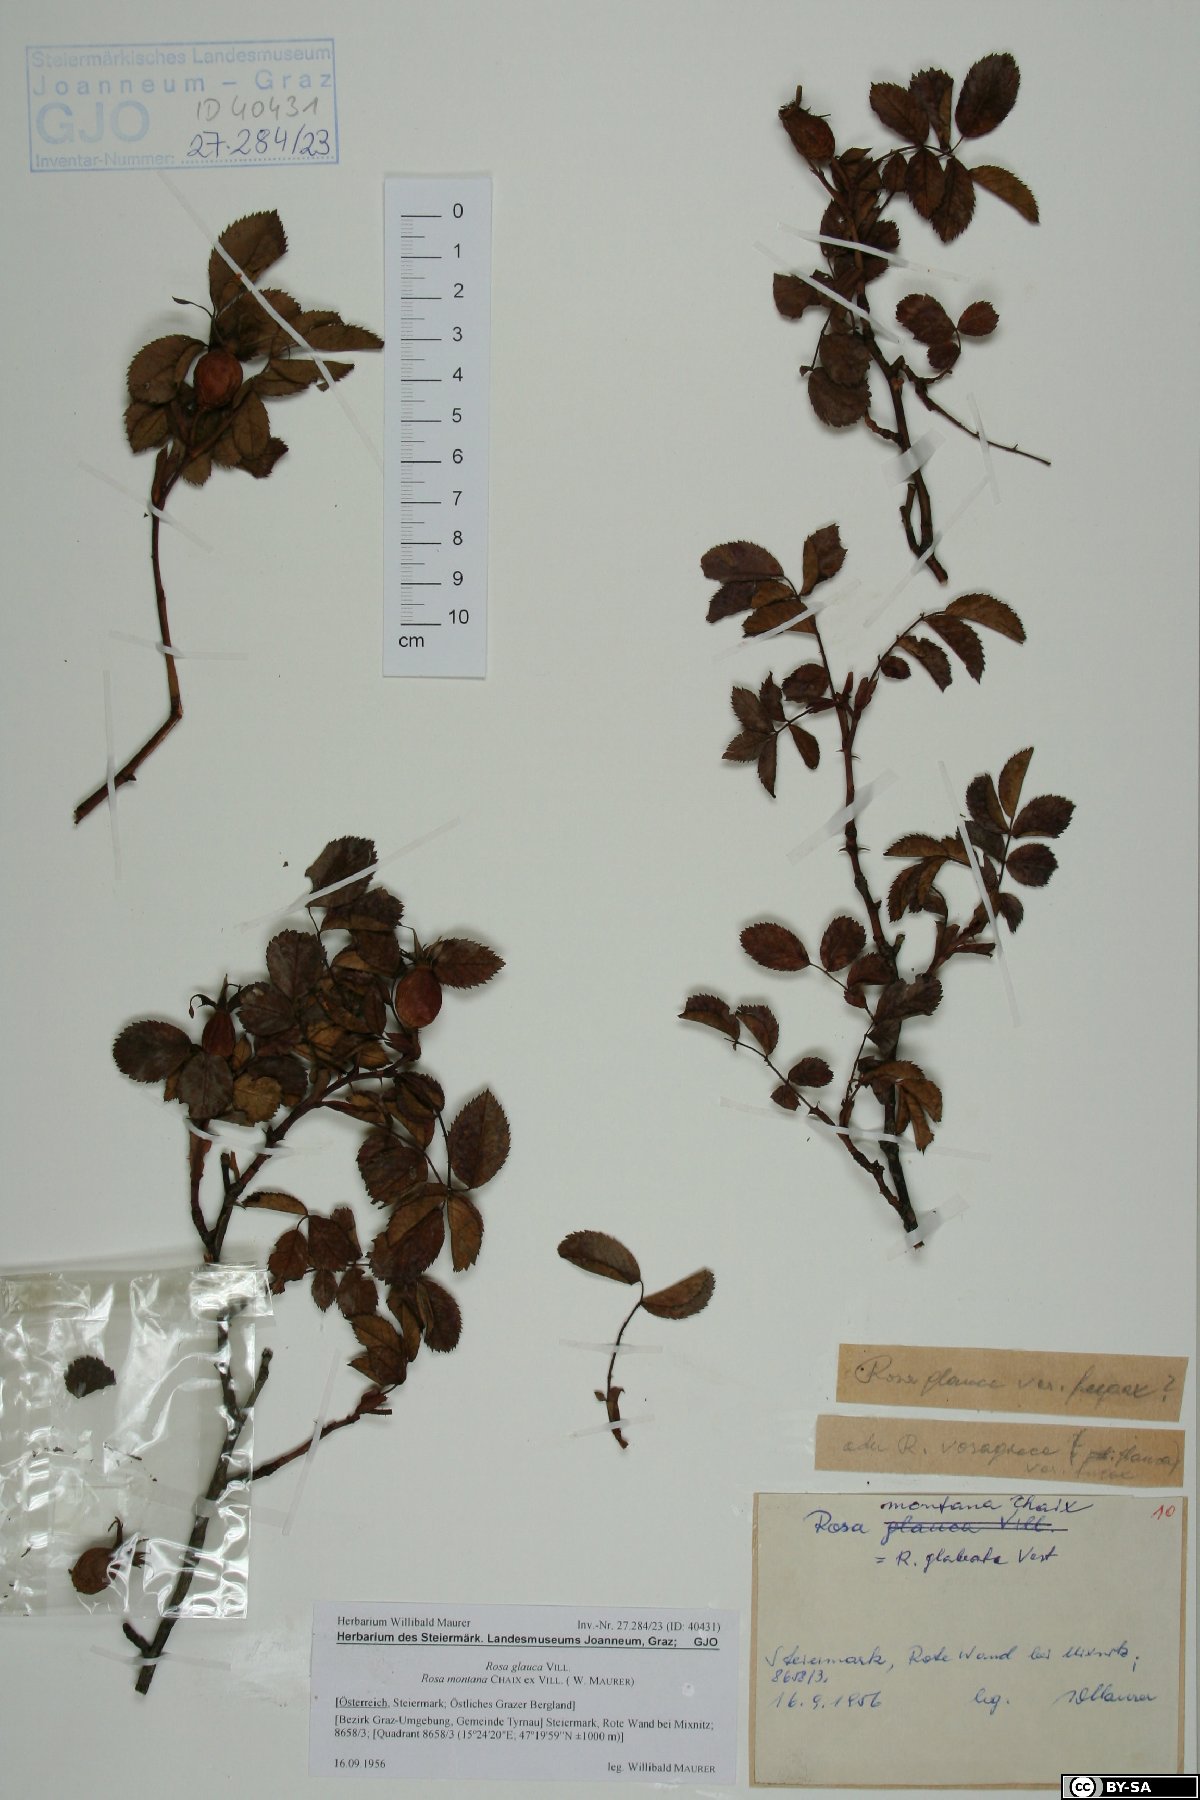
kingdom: Plantae
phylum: Tracheophyta
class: Magnoliopsida
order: Rosales
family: Rosaceae
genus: Rosa
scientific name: Rosa montana
